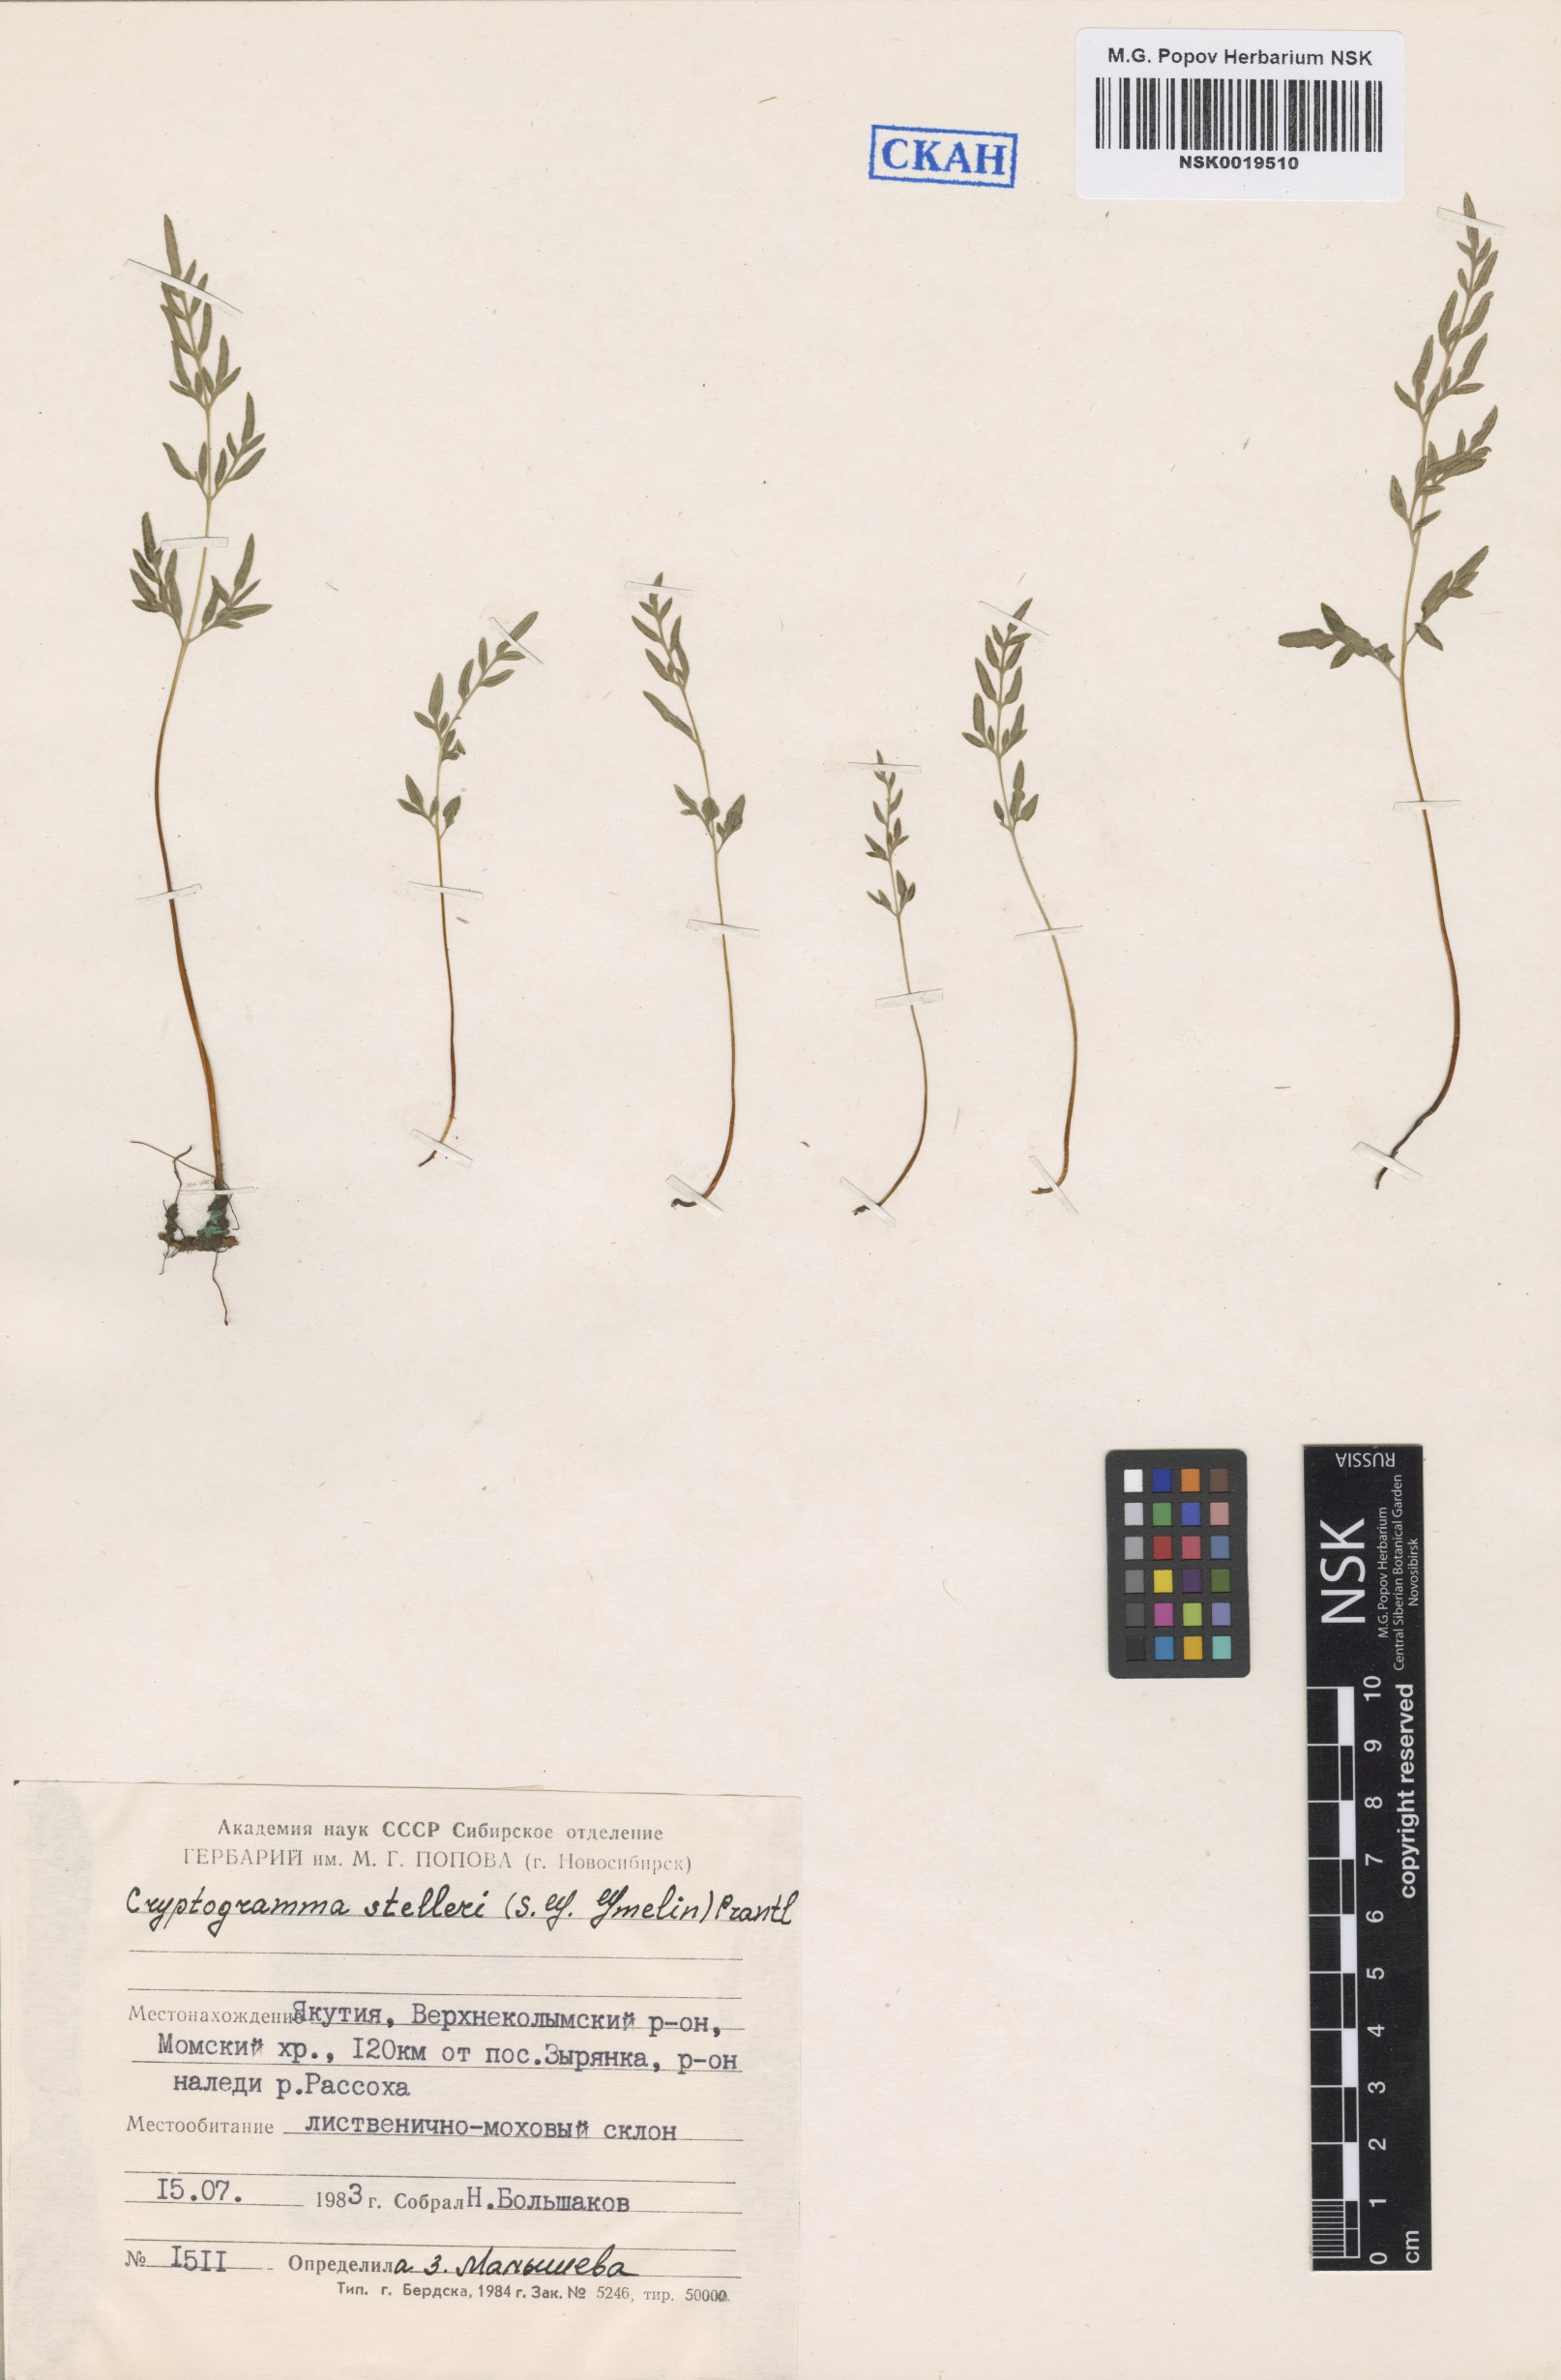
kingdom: Plantae
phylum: Tracheophyta
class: Polypodiopsida
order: Polypodiales
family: Pteridaceae
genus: Cryptogramma
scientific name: Cryptogramma stelleri
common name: Cliff-brake
